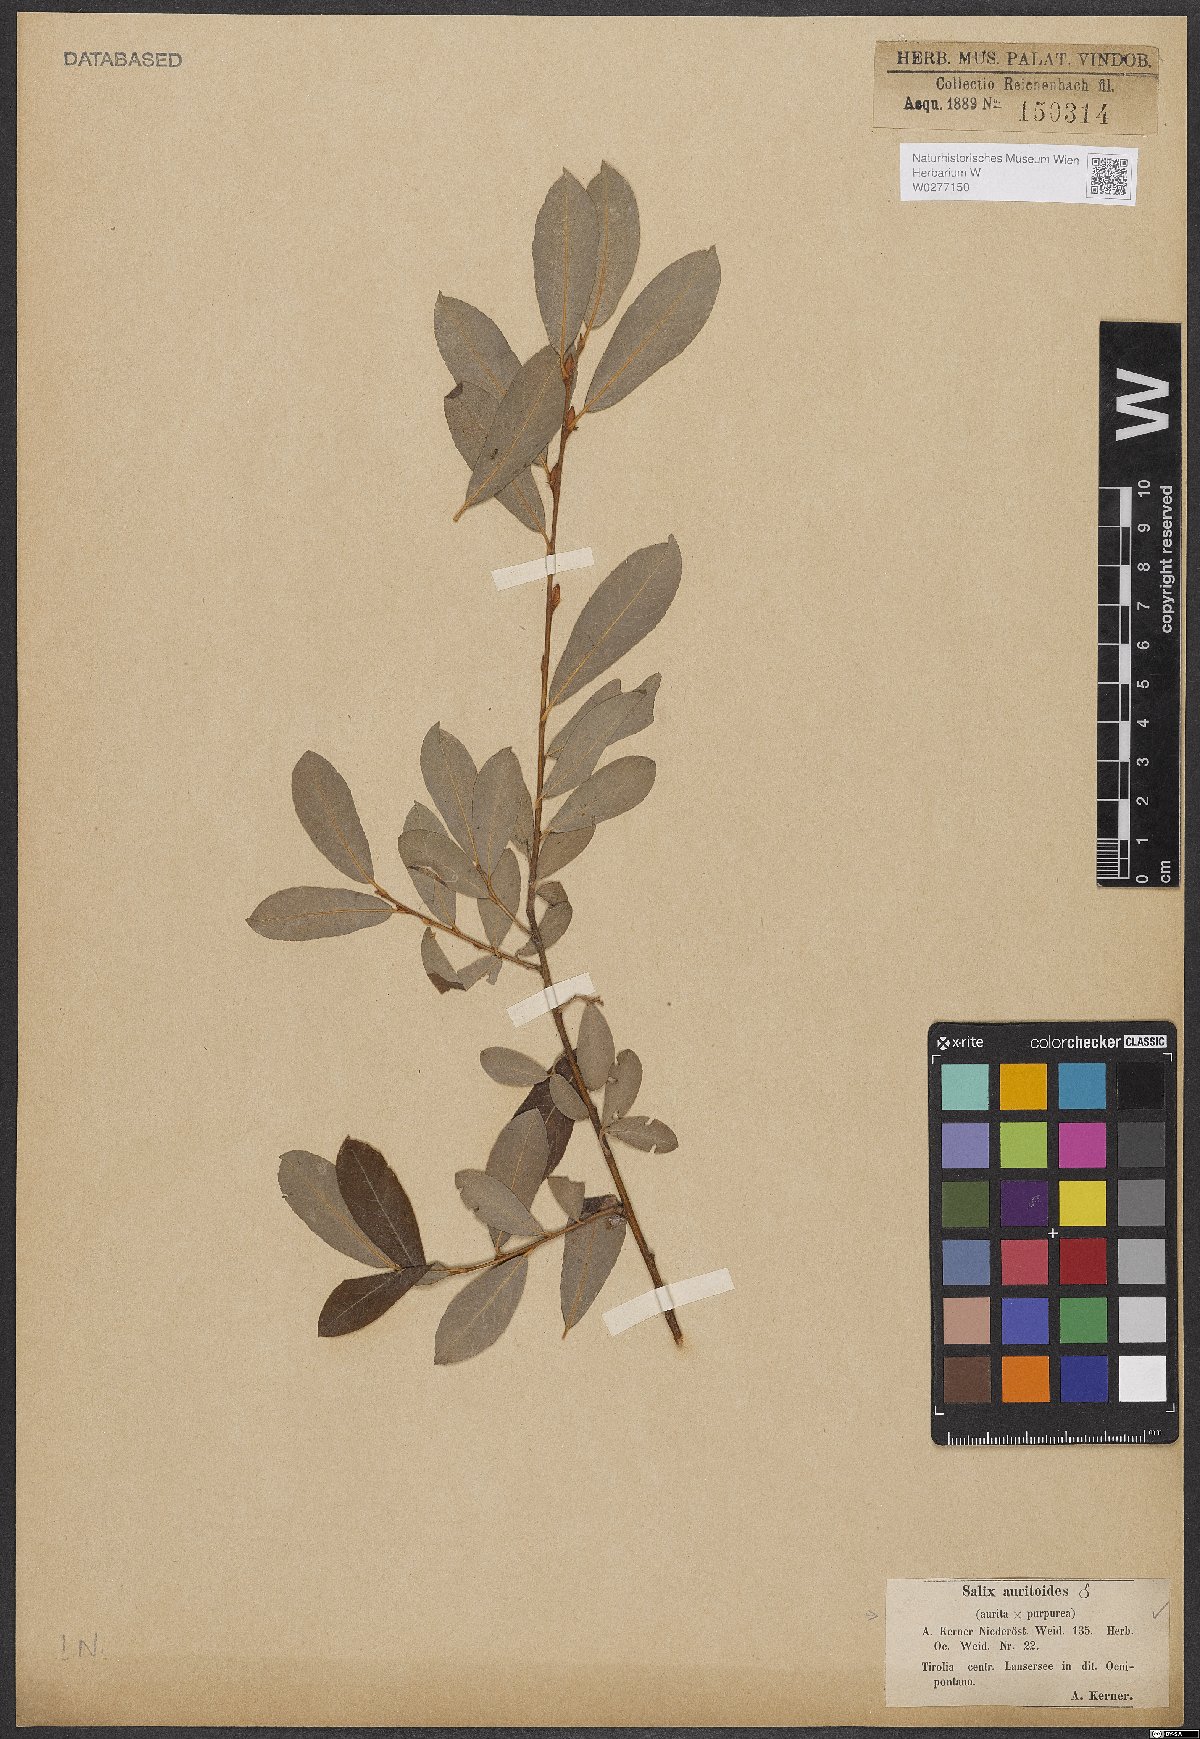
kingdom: Plantae
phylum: Tracheophyta
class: Magnoliopsida
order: Malpighiales
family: Salicaceae
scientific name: Salicaceae
